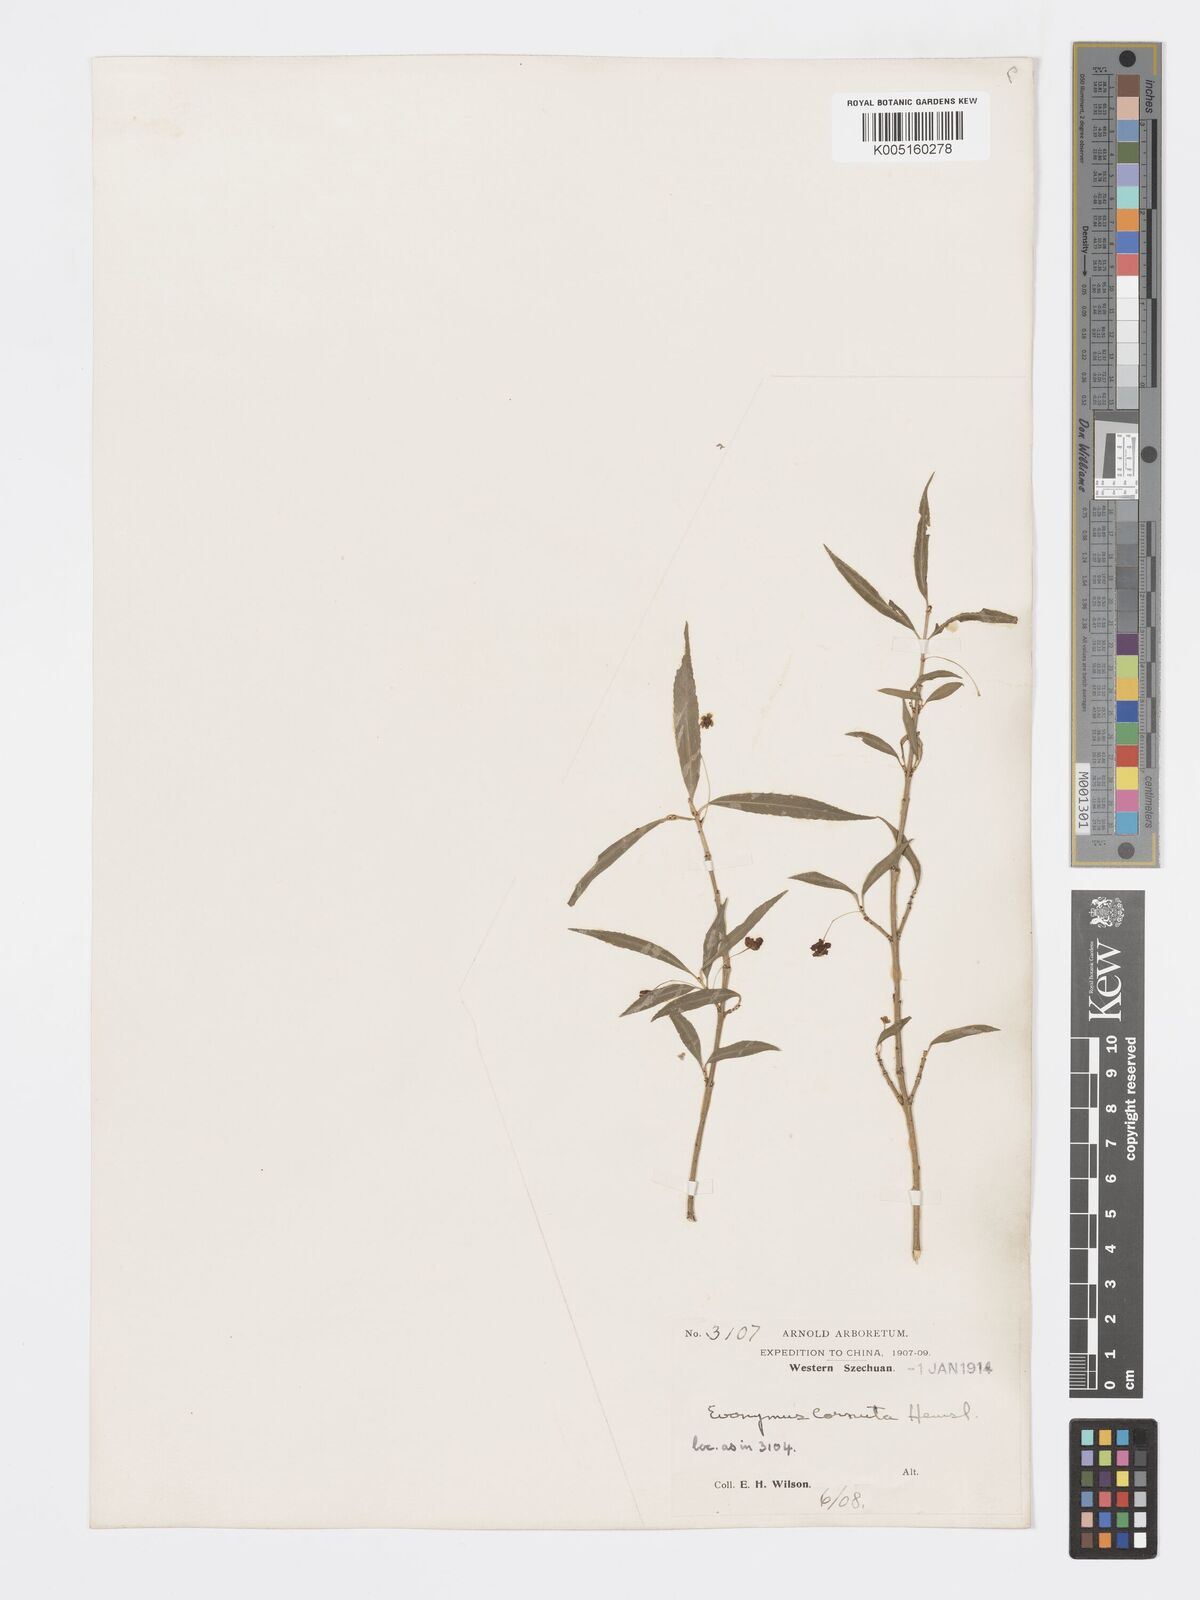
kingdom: Plantae
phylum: Tracheophyta
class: Magnoliopsida
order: Celastrales
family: Celastraceae
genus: Euonymus
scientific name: Euonymus cornutus
